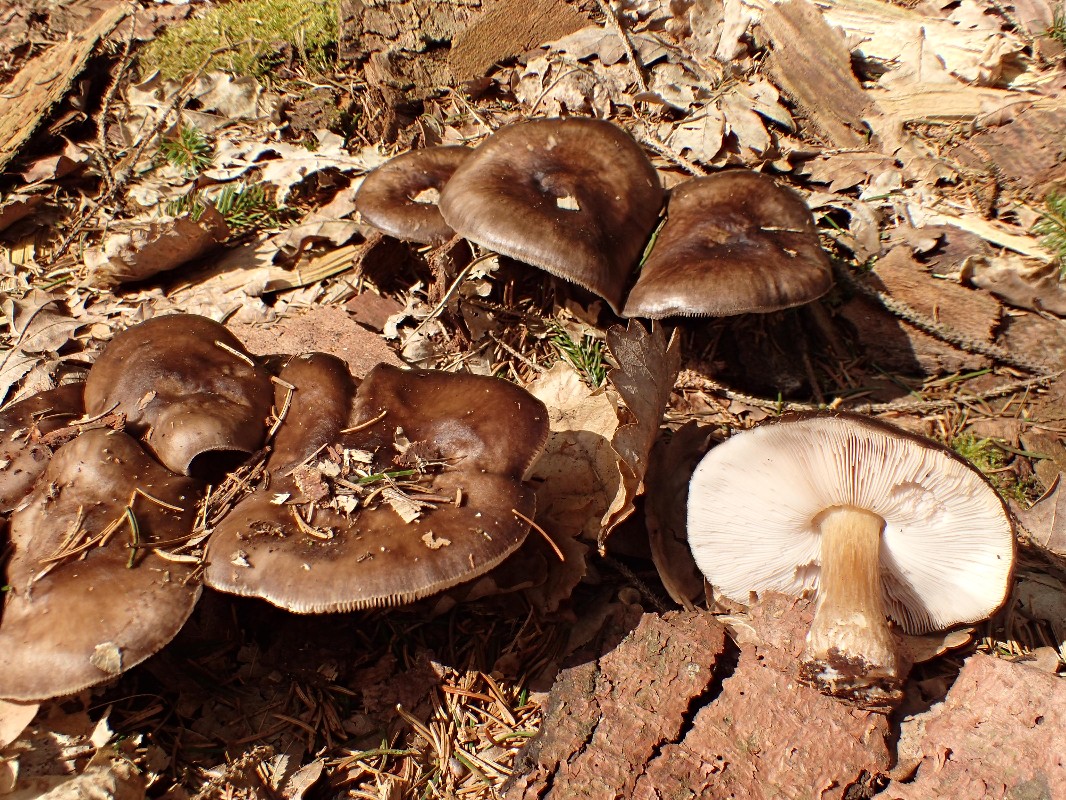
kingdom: Fungi
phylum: Basidiomycota
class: Agaricomycetes
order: Agaricales
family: Pluteaceae
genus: Pluteus
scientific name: Pluteus
